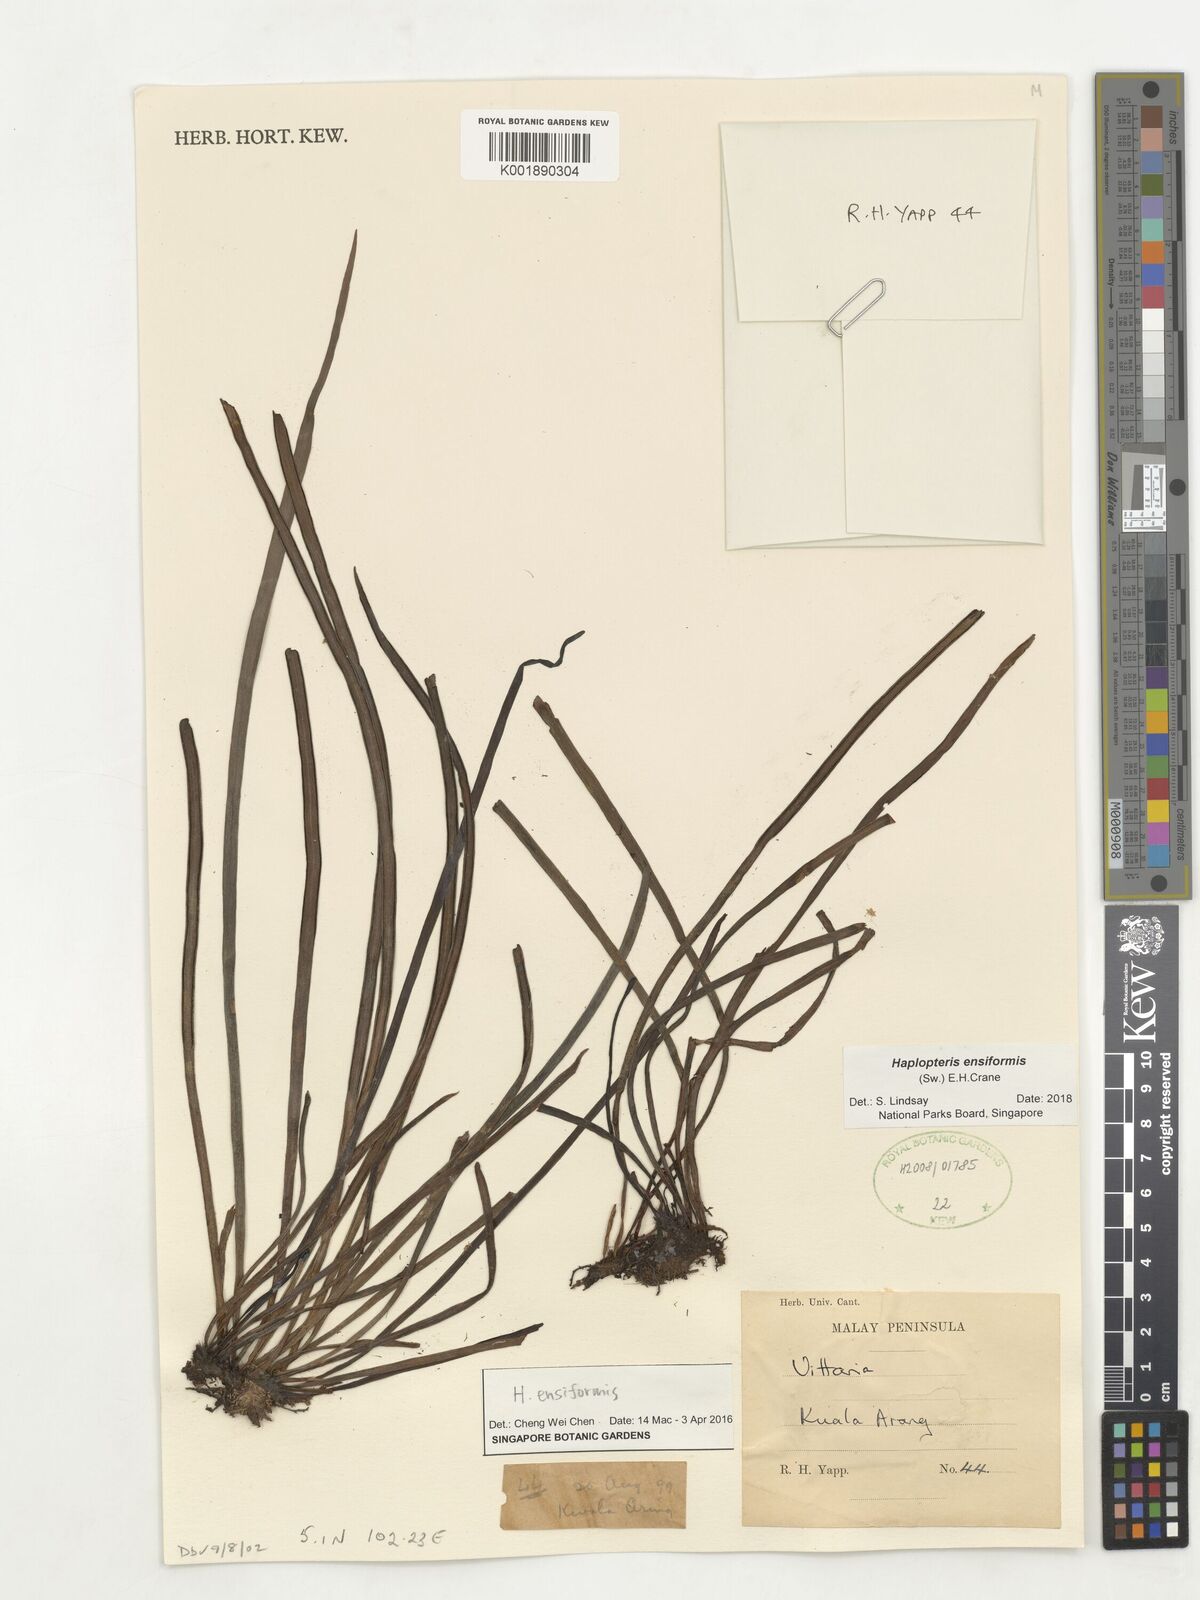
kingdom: Plantae
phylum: Tracheophyta
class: Polypodiopsida
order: Polypodiales
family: Pteridaceae
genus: Haplopteris
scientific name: Haplopteris ensiformis
